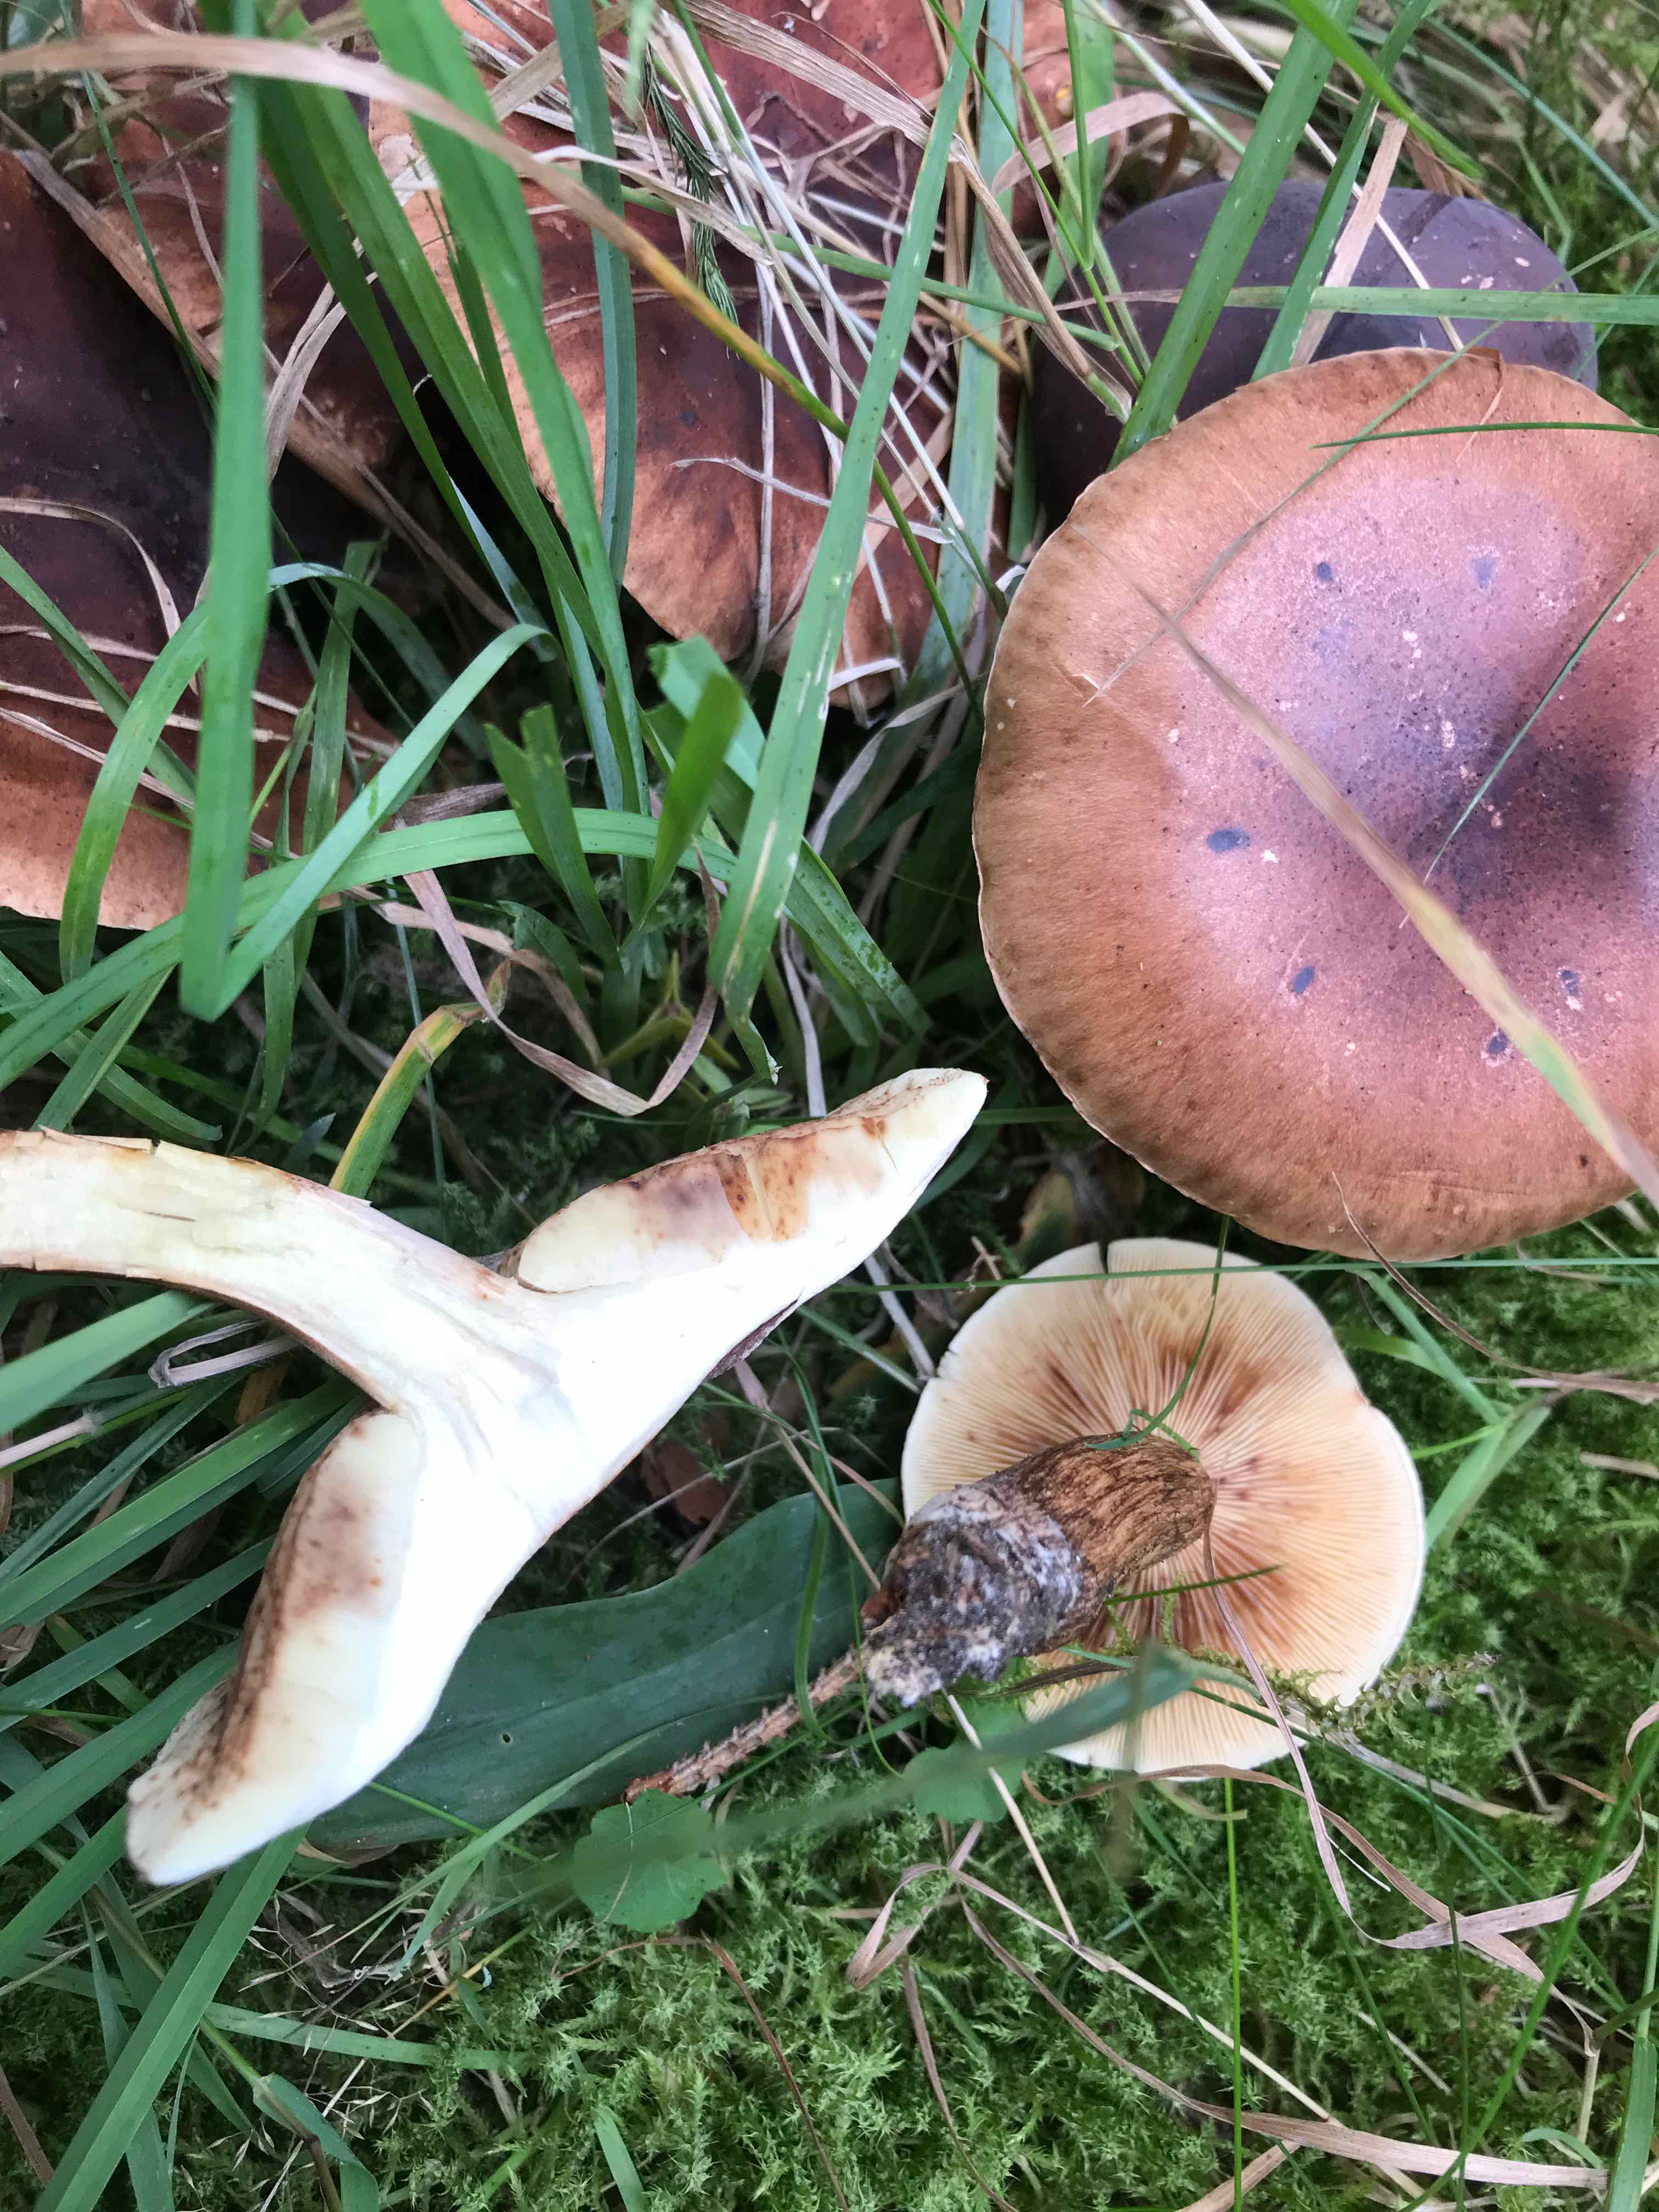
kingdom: Fungi
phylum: Basidiomycota
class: Agaricomycetes
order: Agaricales
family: Tricholomataceae
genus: Tricholoma
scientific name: Tricholoma fulvum
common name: birke-ridderhat
